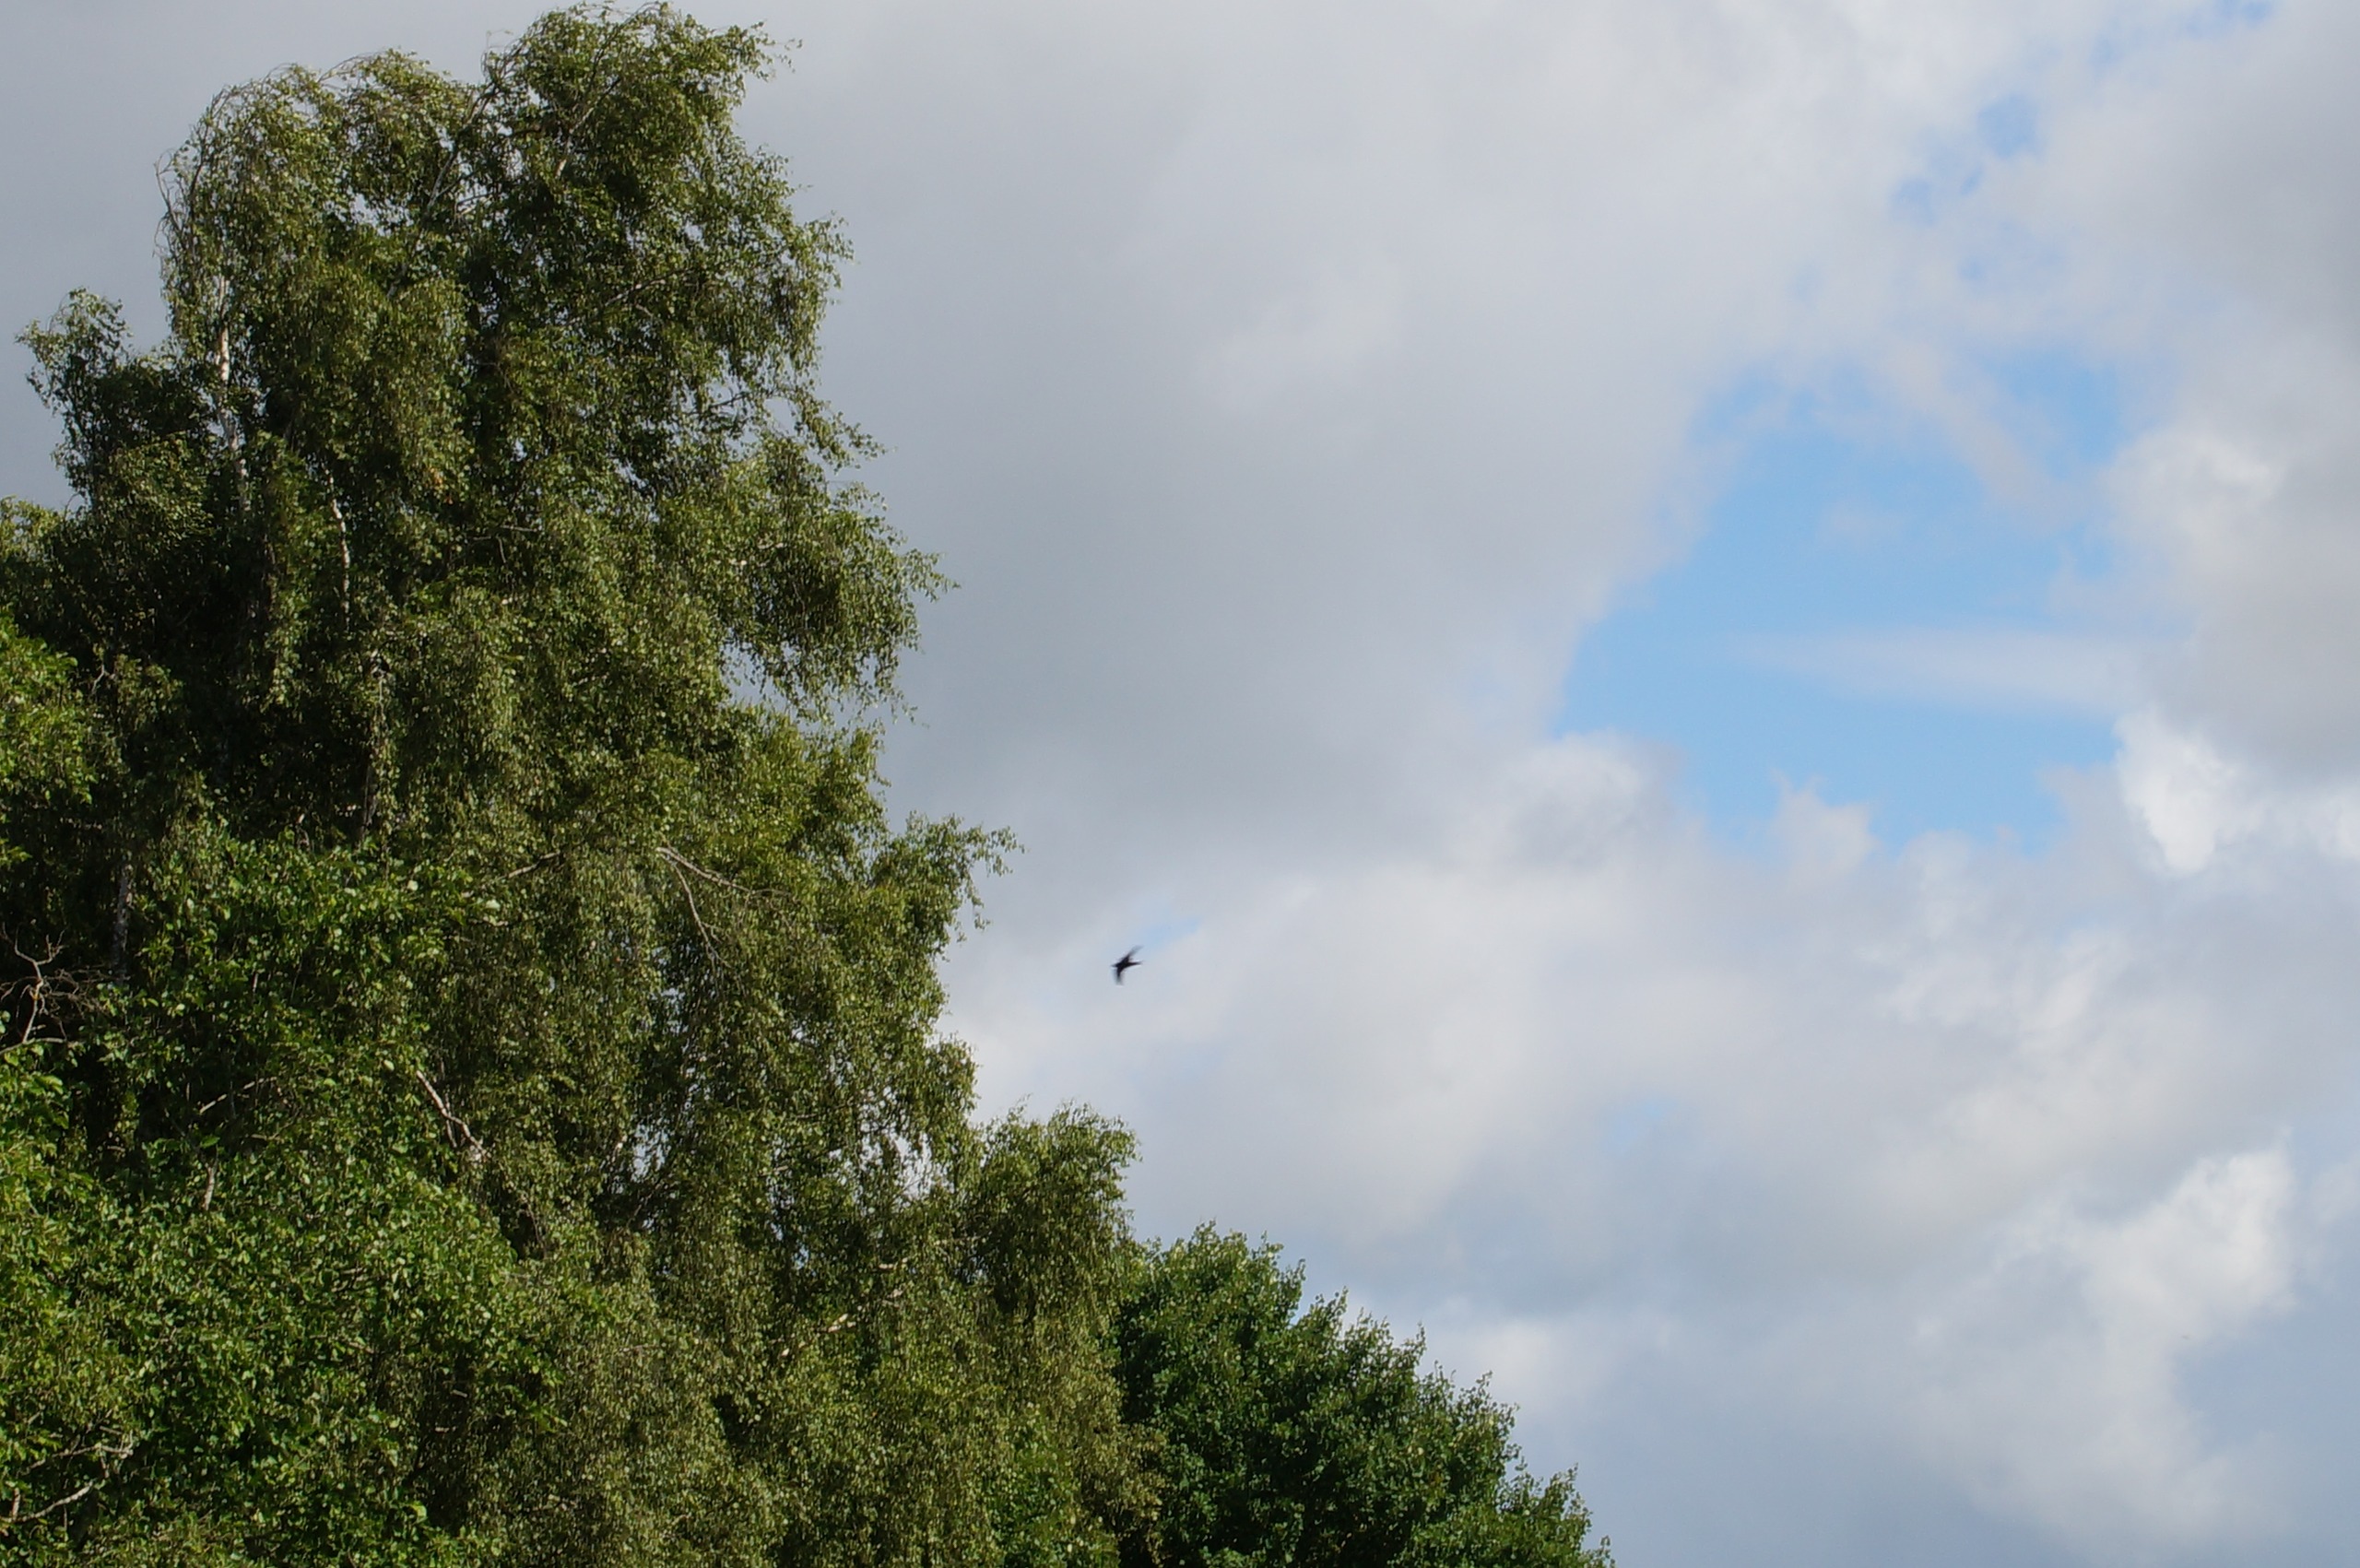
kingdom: Animalia
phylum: Chordata
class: Aves
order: Apodiformes
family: Apodidae
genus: Apus
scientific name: Apus apus
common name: Mursejler
